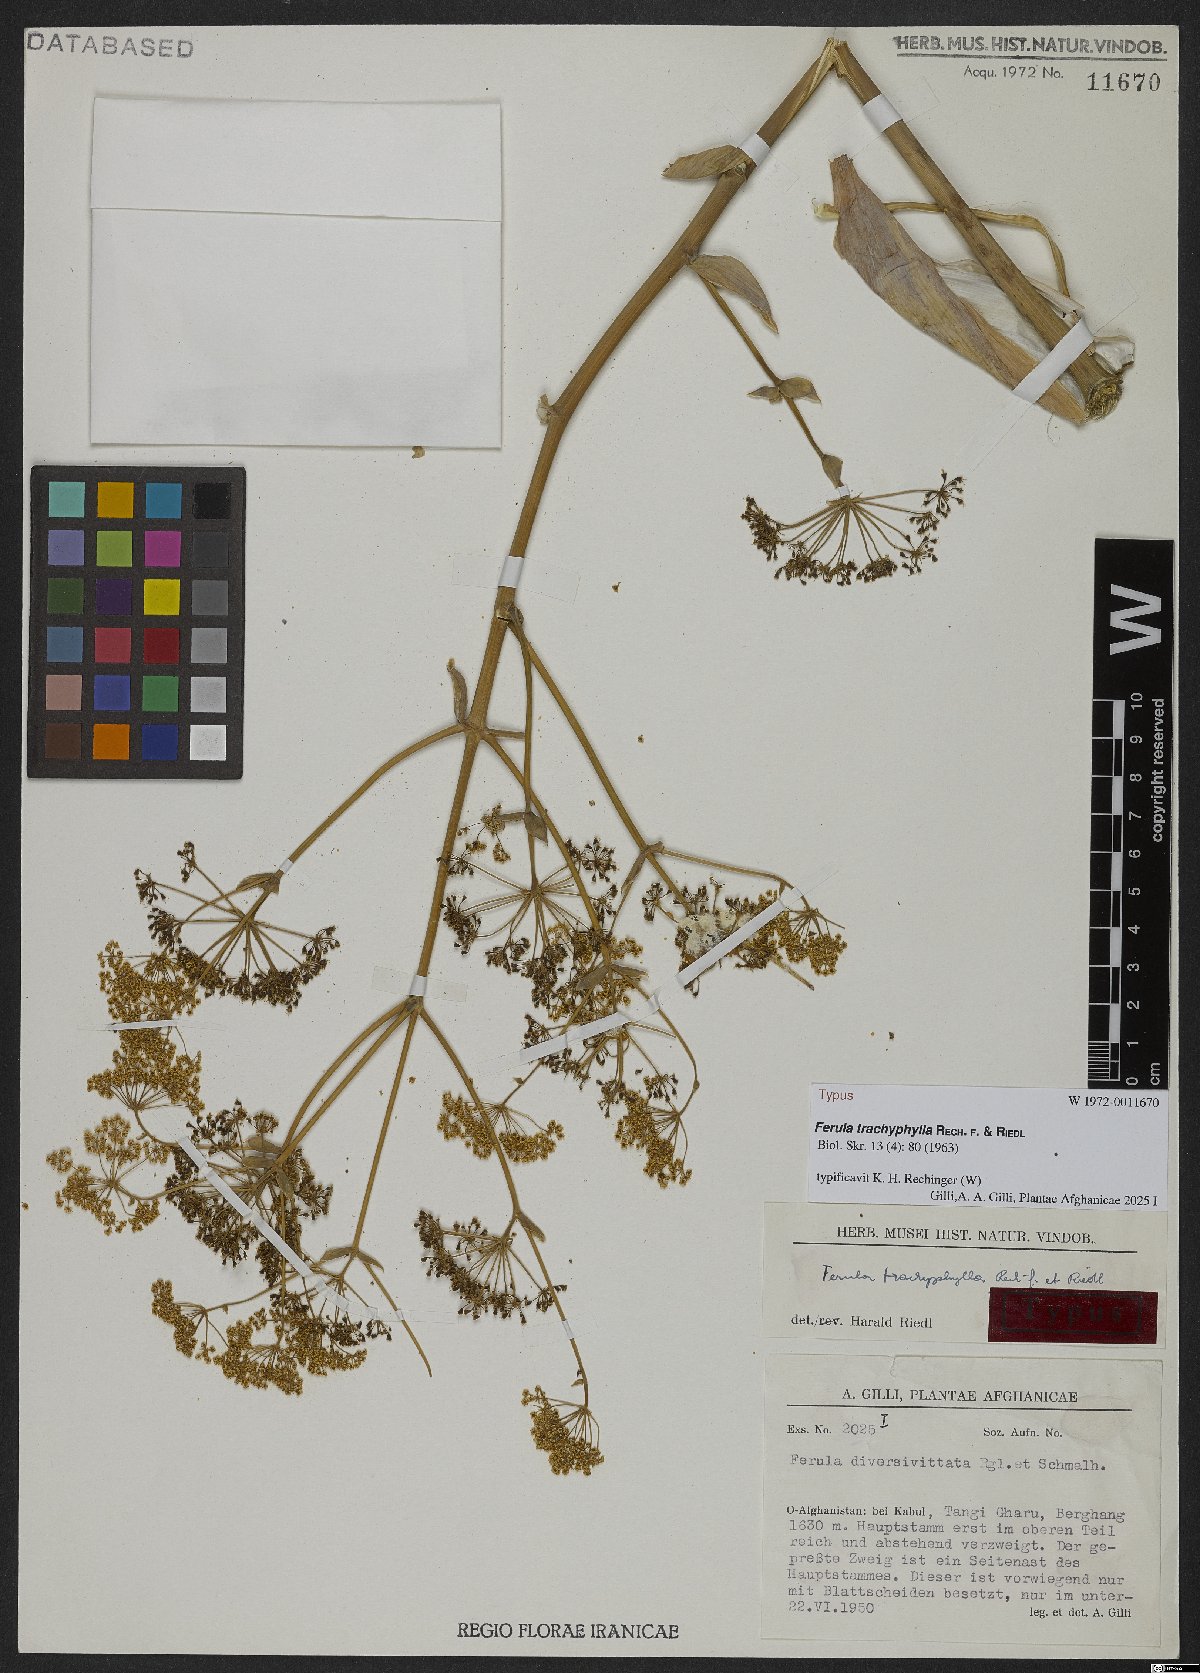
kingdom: Plantae
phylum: Tracheophyta
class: Magnoliopsida
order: Apiales
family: Apiaceae
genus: Ferula
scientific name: Ferula trachyphylla
